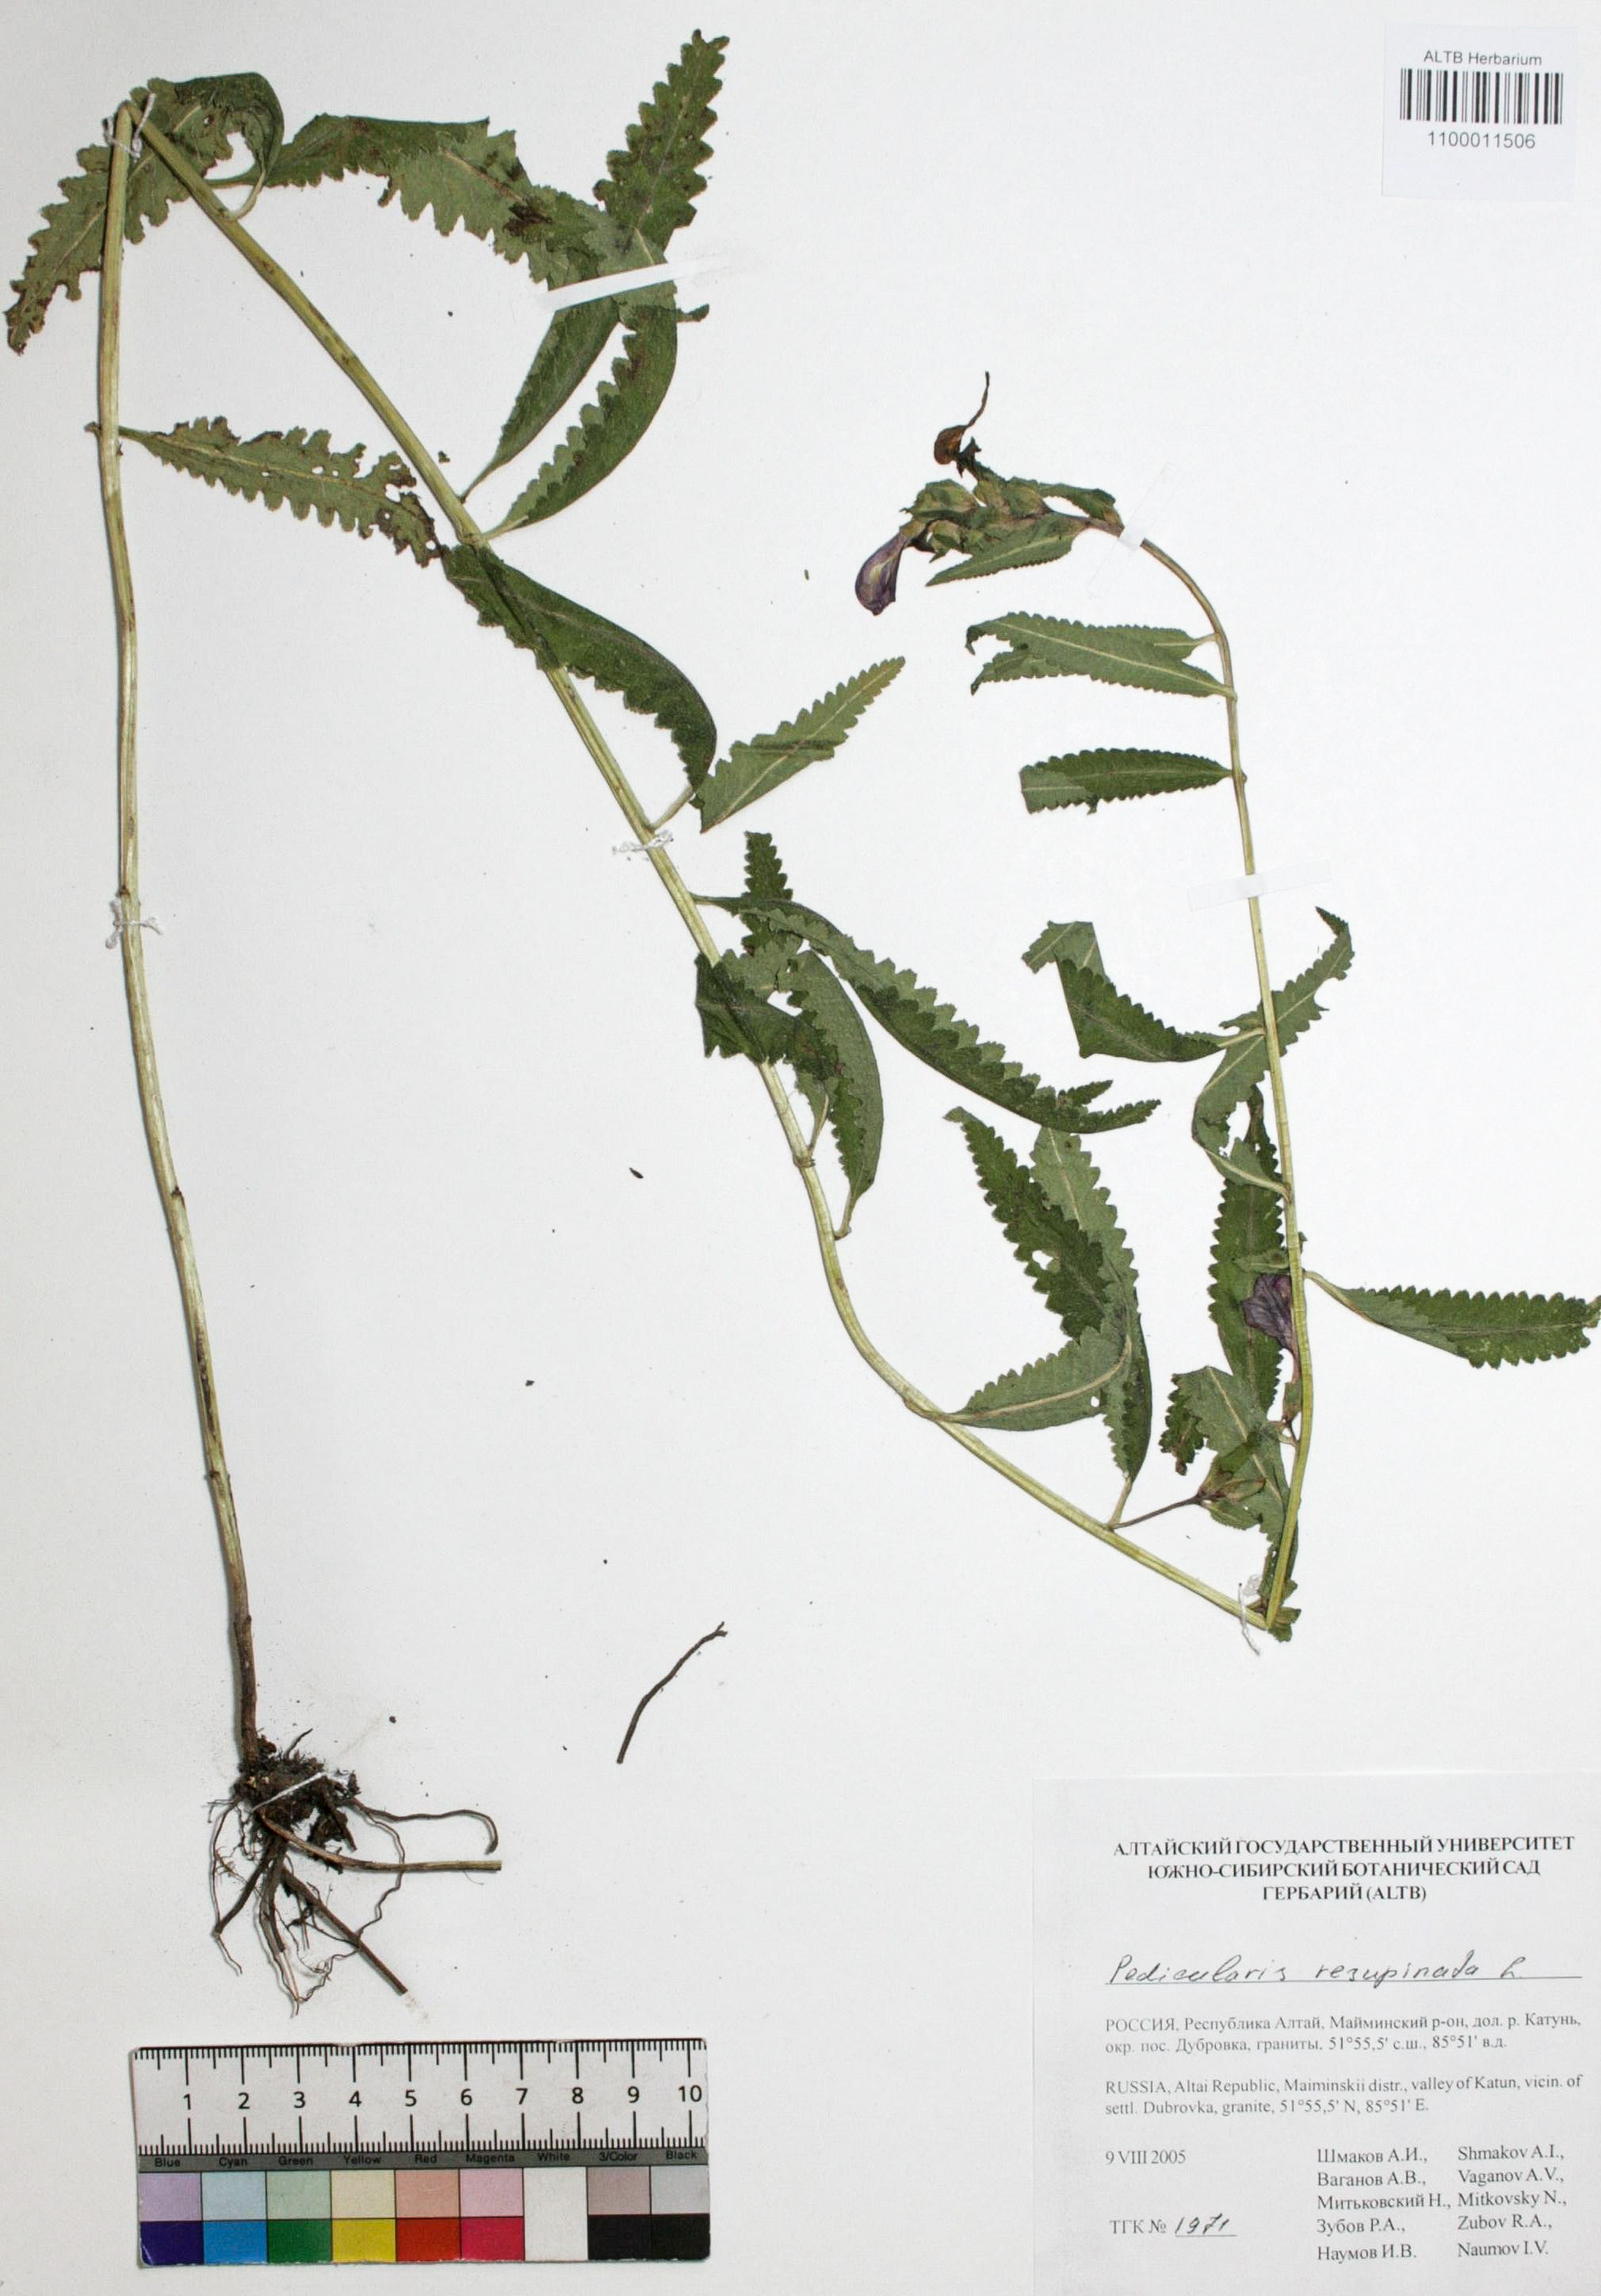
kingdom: Plantae
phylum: Tracheophyta
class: Magnoliopsida
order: Lamiales
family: Orobanchaceae
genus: Pedicularis
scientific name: Pedicularis resupinata
